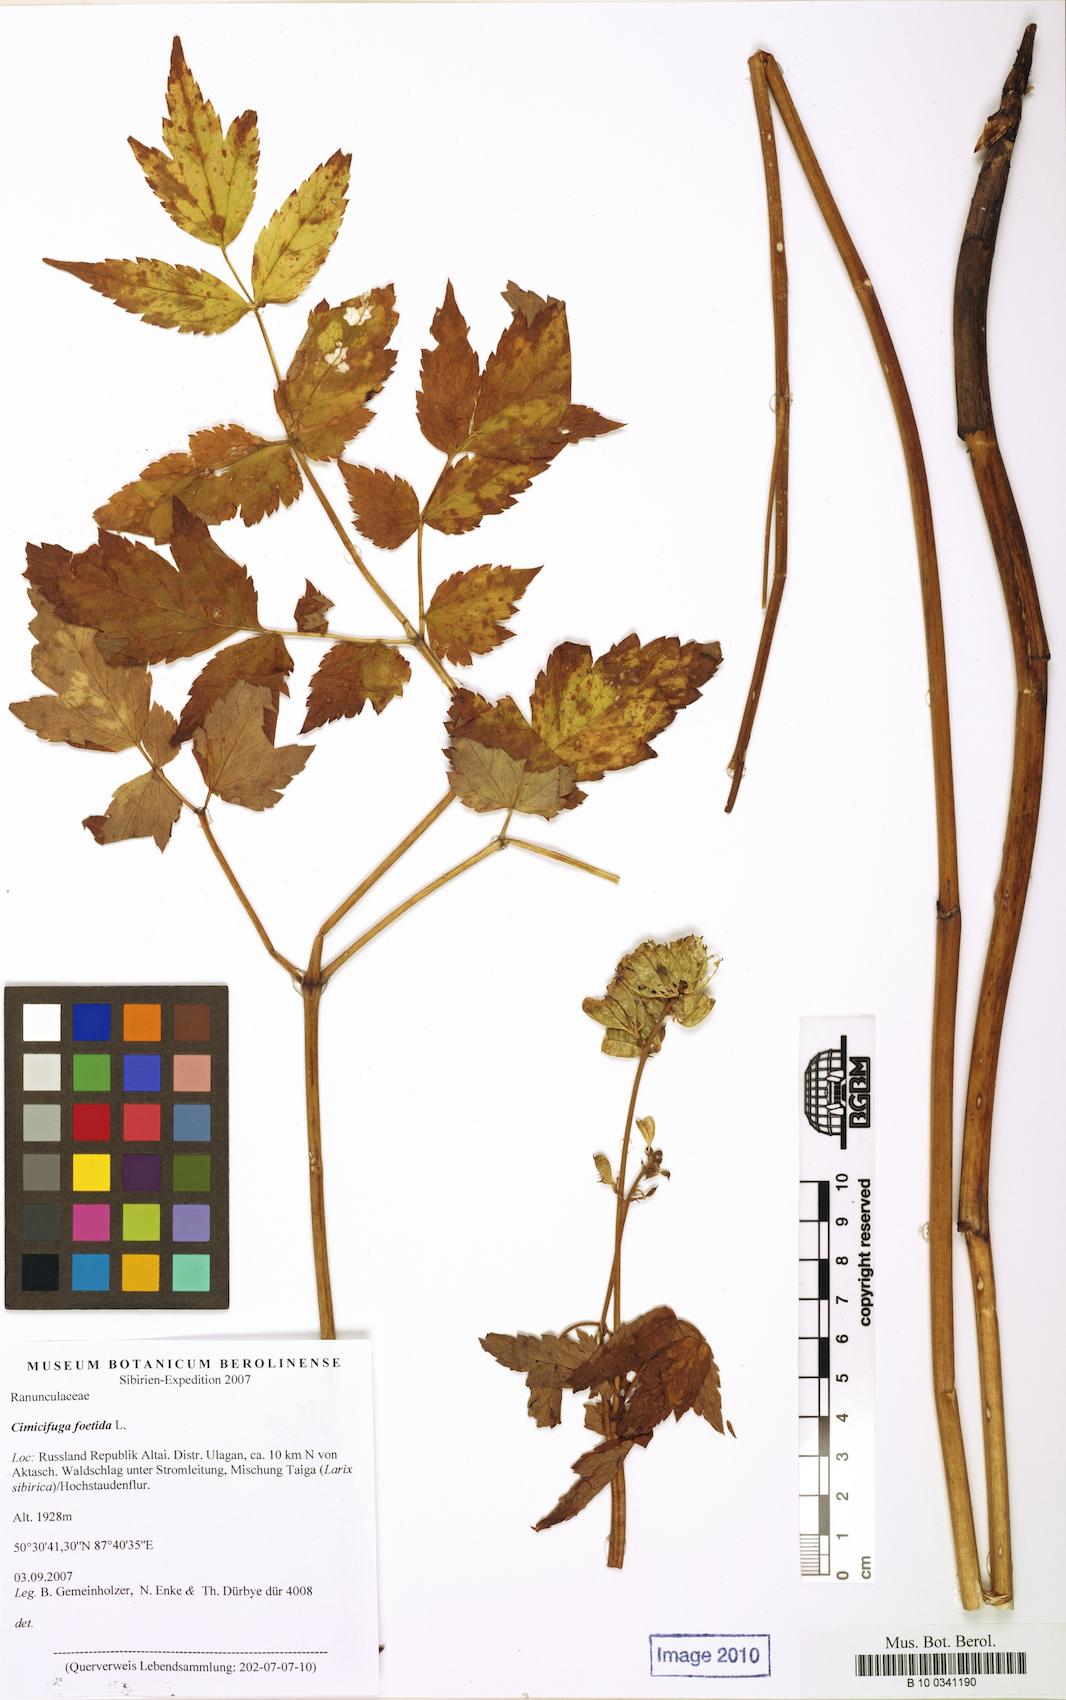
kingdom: Plantae
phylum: Tracheophyta
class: Magnoliopsida
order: Ranunculales
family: Ranunculaceae
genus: Actaea
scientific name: Actaea cimicifuga
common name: Chinese cimicifuga
